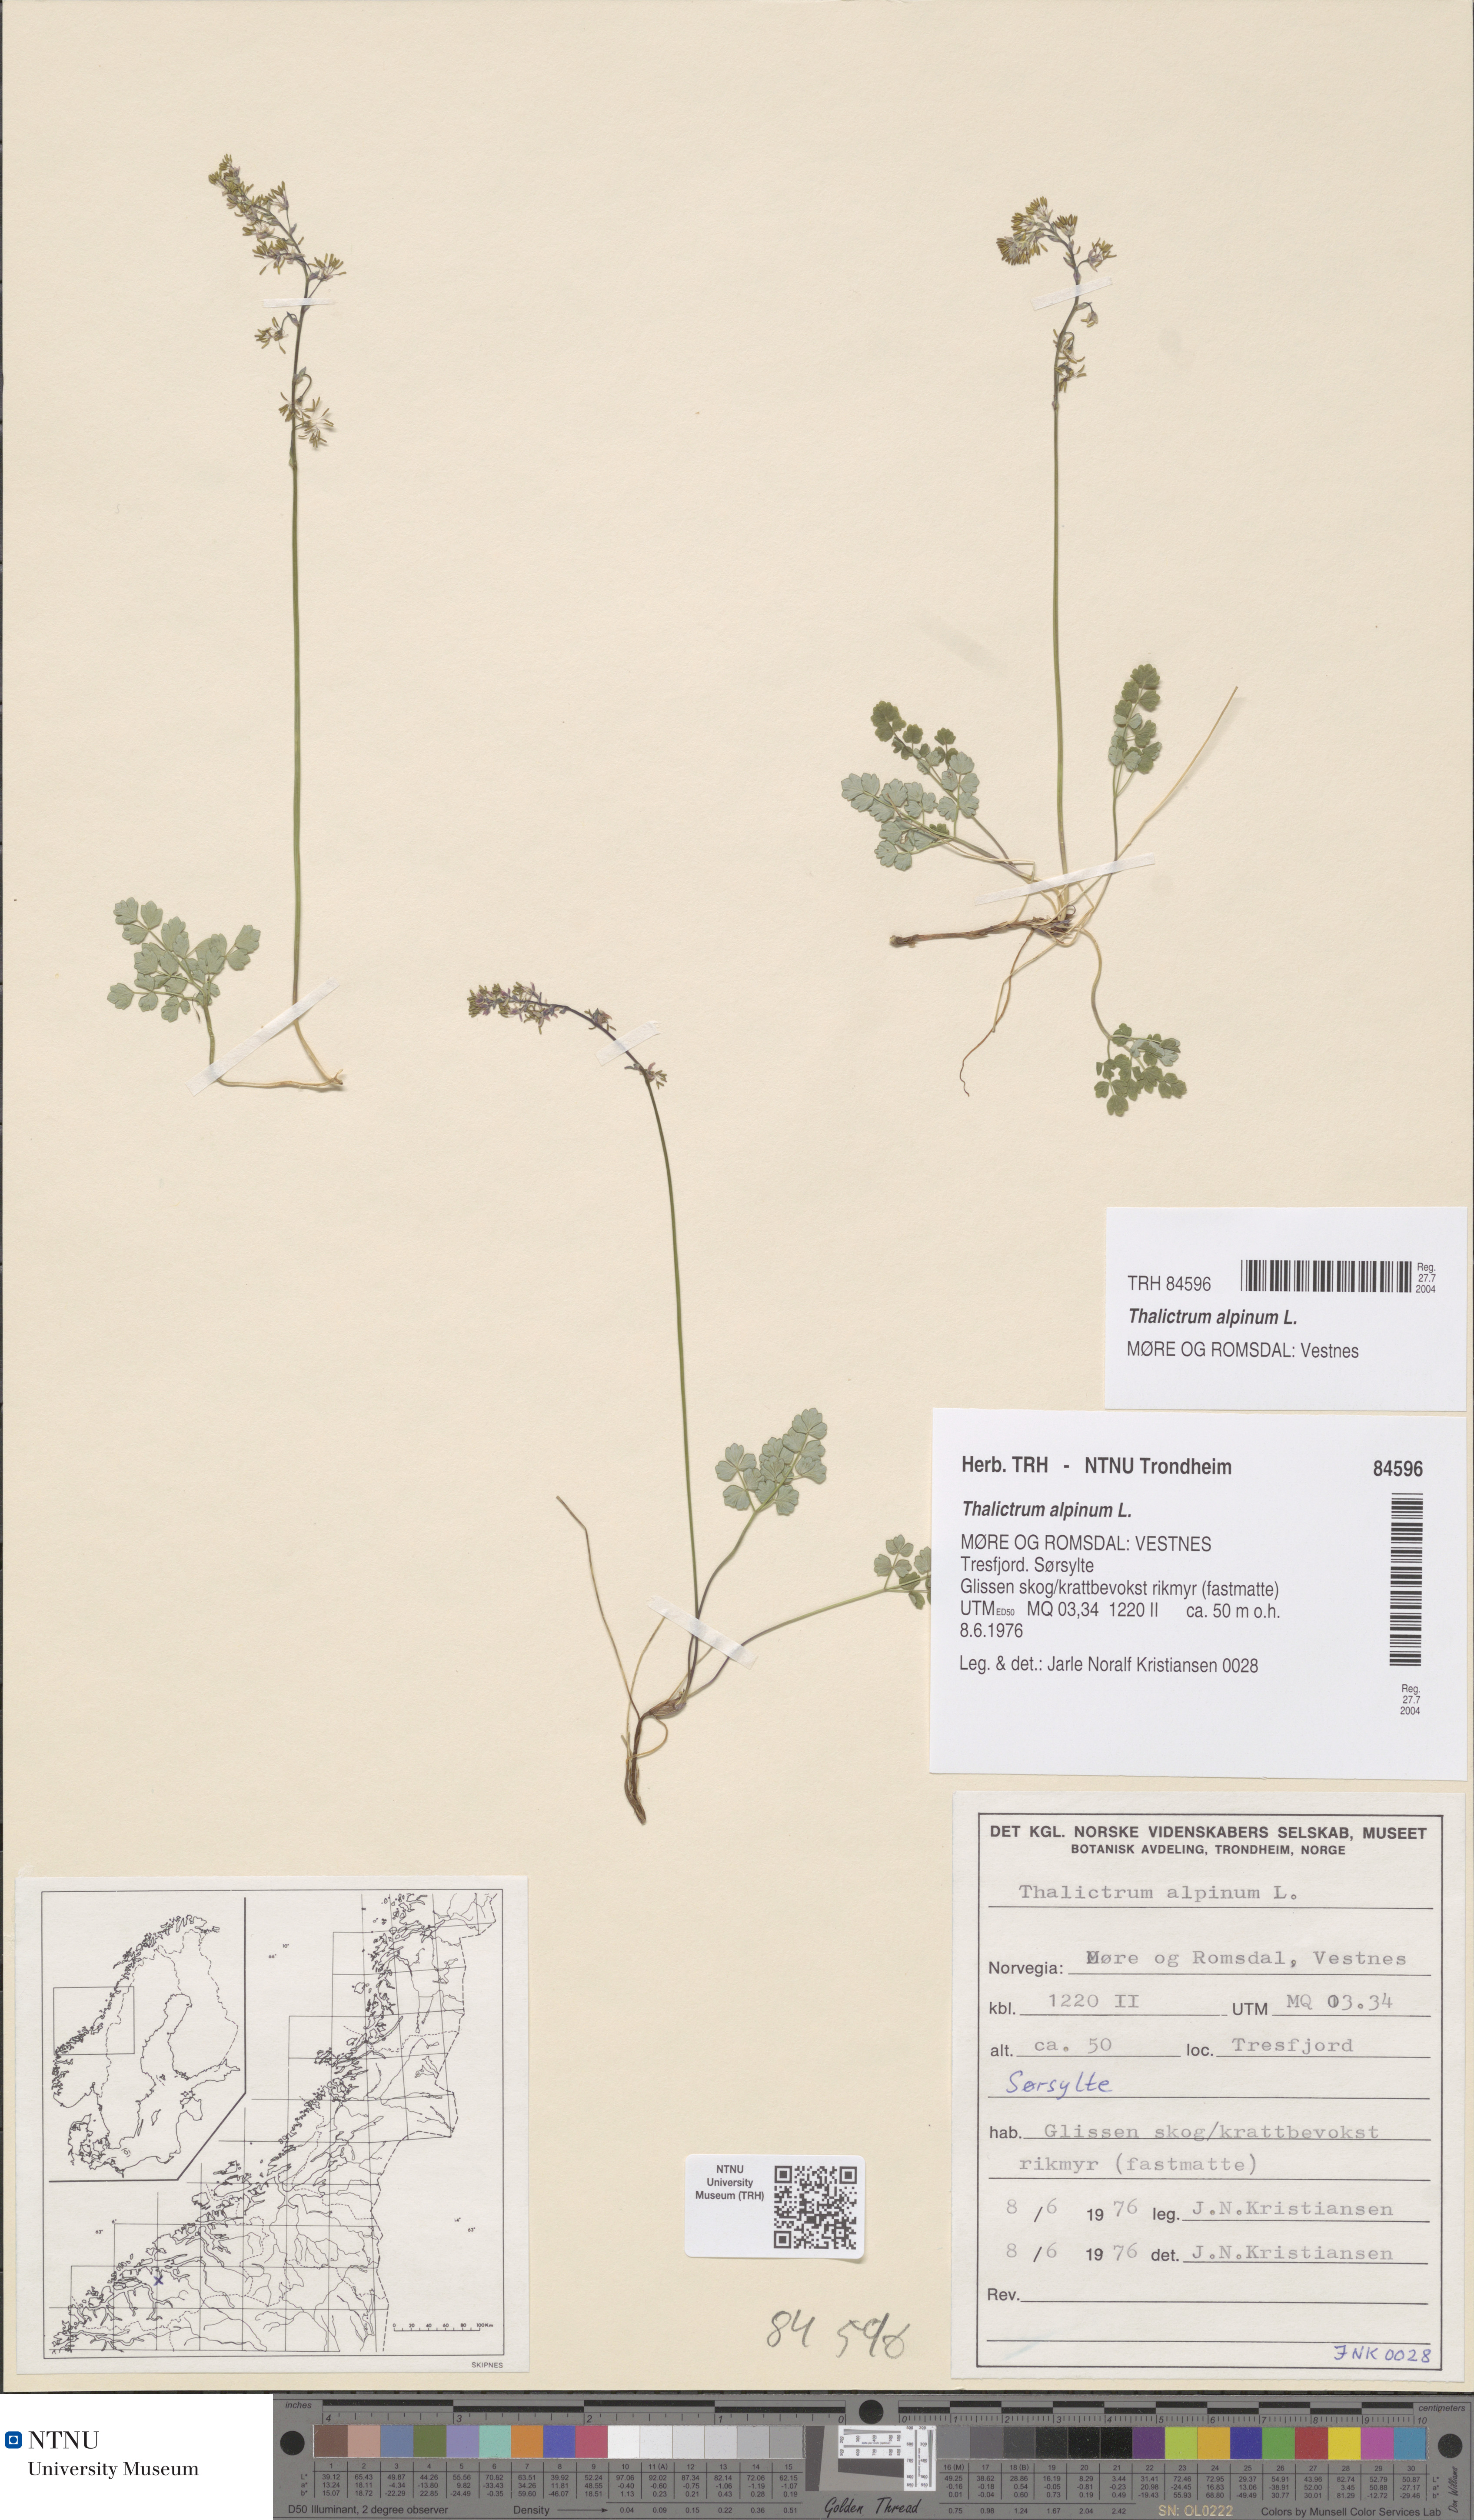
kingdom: Plantae
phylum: Tracheophyta
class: Magnoliopsida
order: Ranunculales
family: Ranunculaceae
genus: Thalictrum
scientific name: Thalictrum alpinum
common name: Alpine meadow-rue
